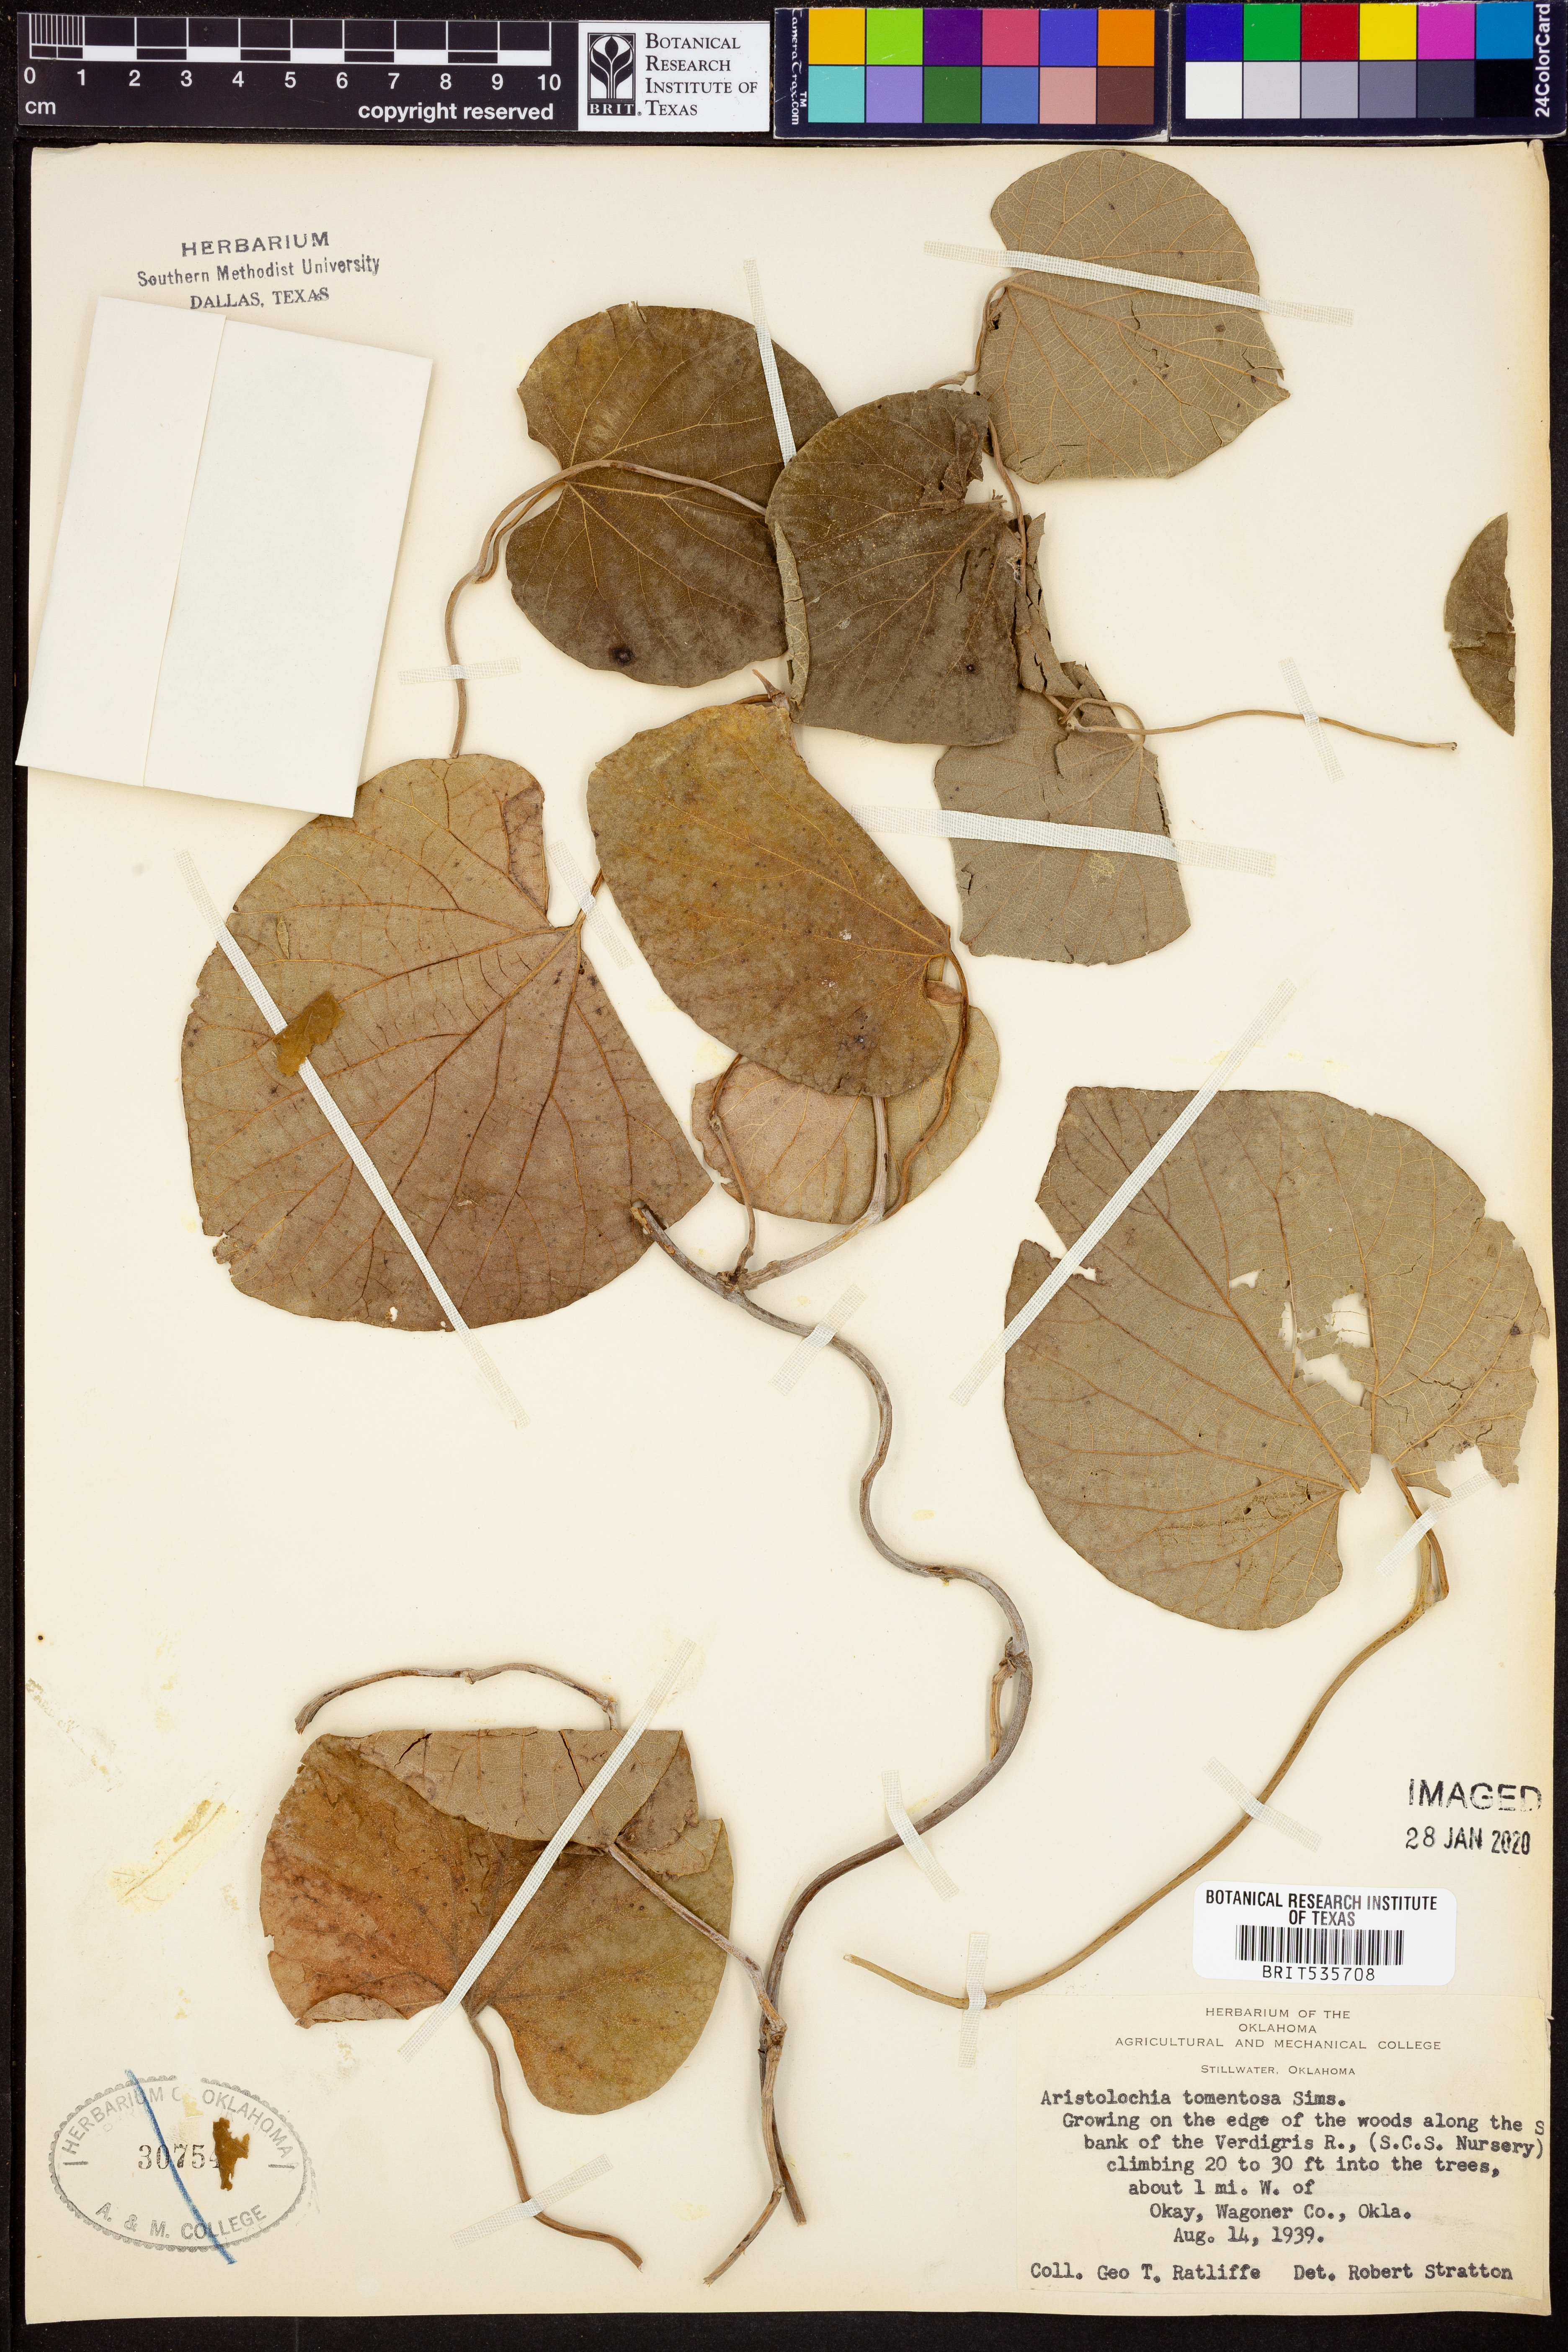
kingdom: Plantae
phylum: Tracheophyta
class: Magnoliopsida
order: Piperales
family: Aristolochiaceae
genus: Isotrema
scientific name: Isotrema tomentosum
